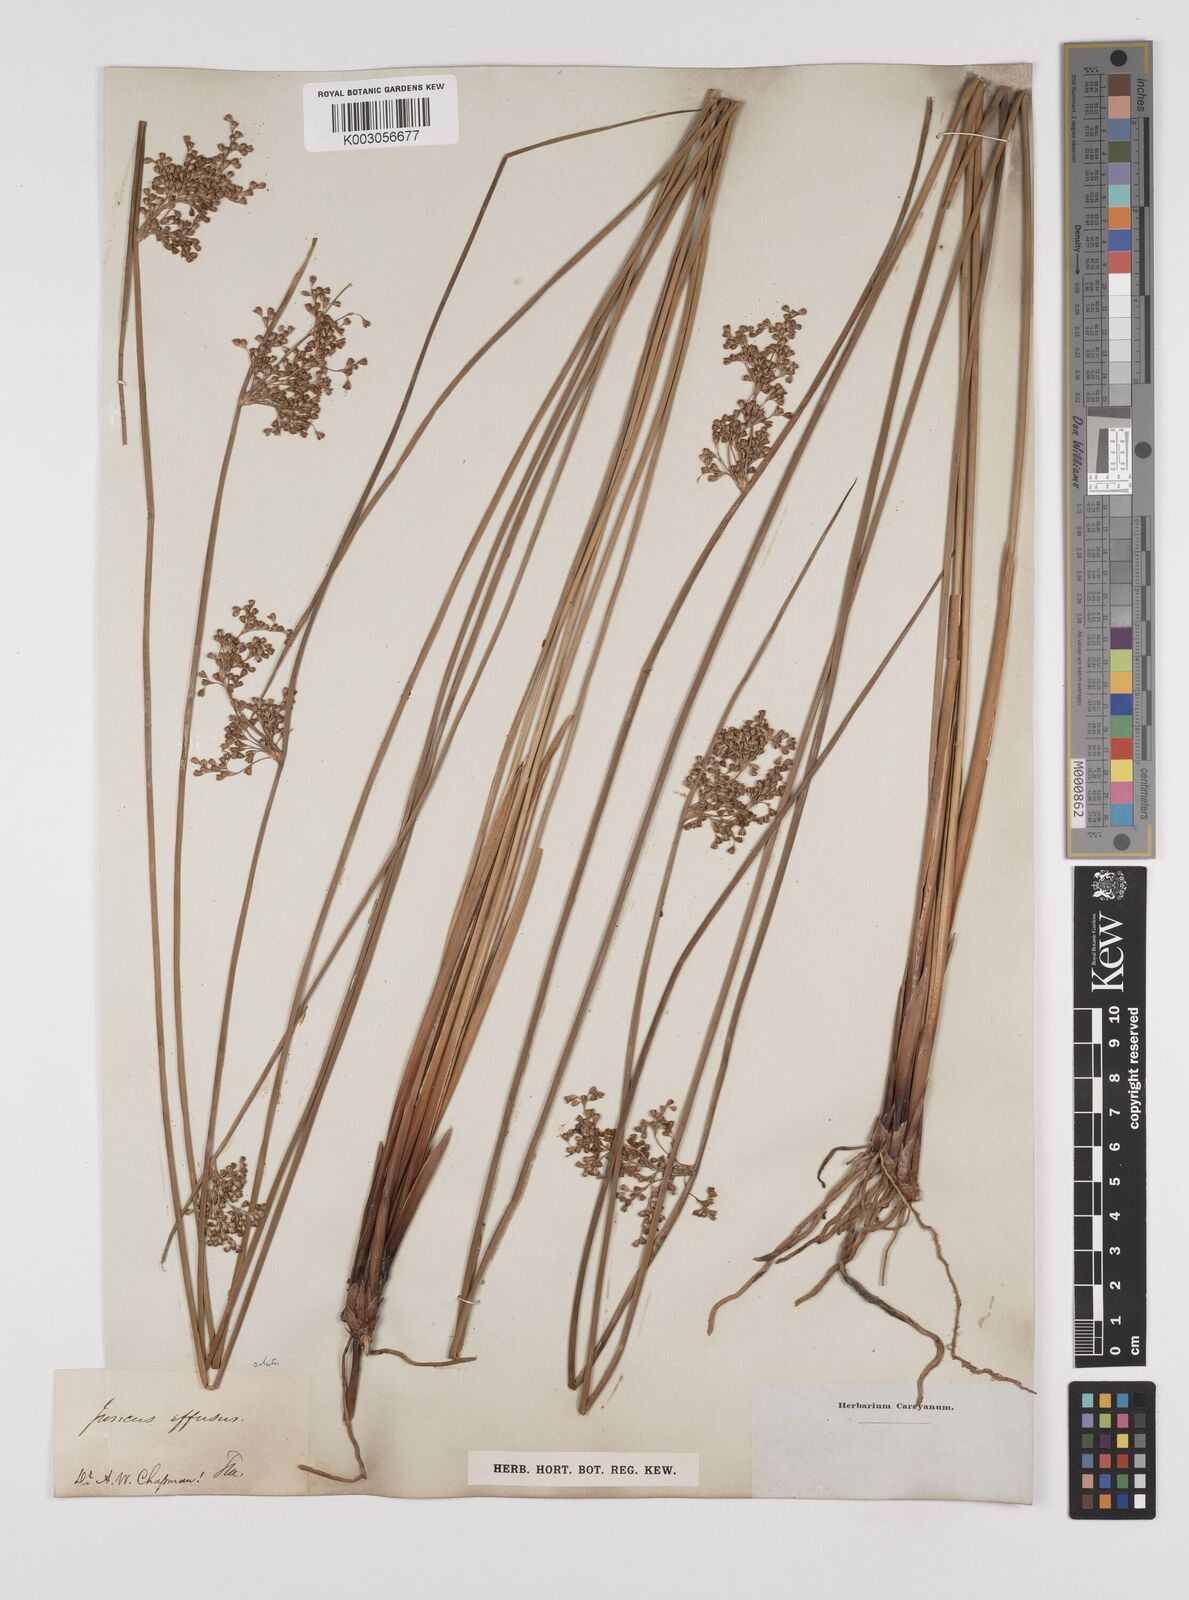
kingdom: Plantae
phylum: Tracheophyta
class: Liliopsida
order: Poales
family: Juncaceae
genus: Juncus
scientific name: Juncus effusus
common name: Soft rush
